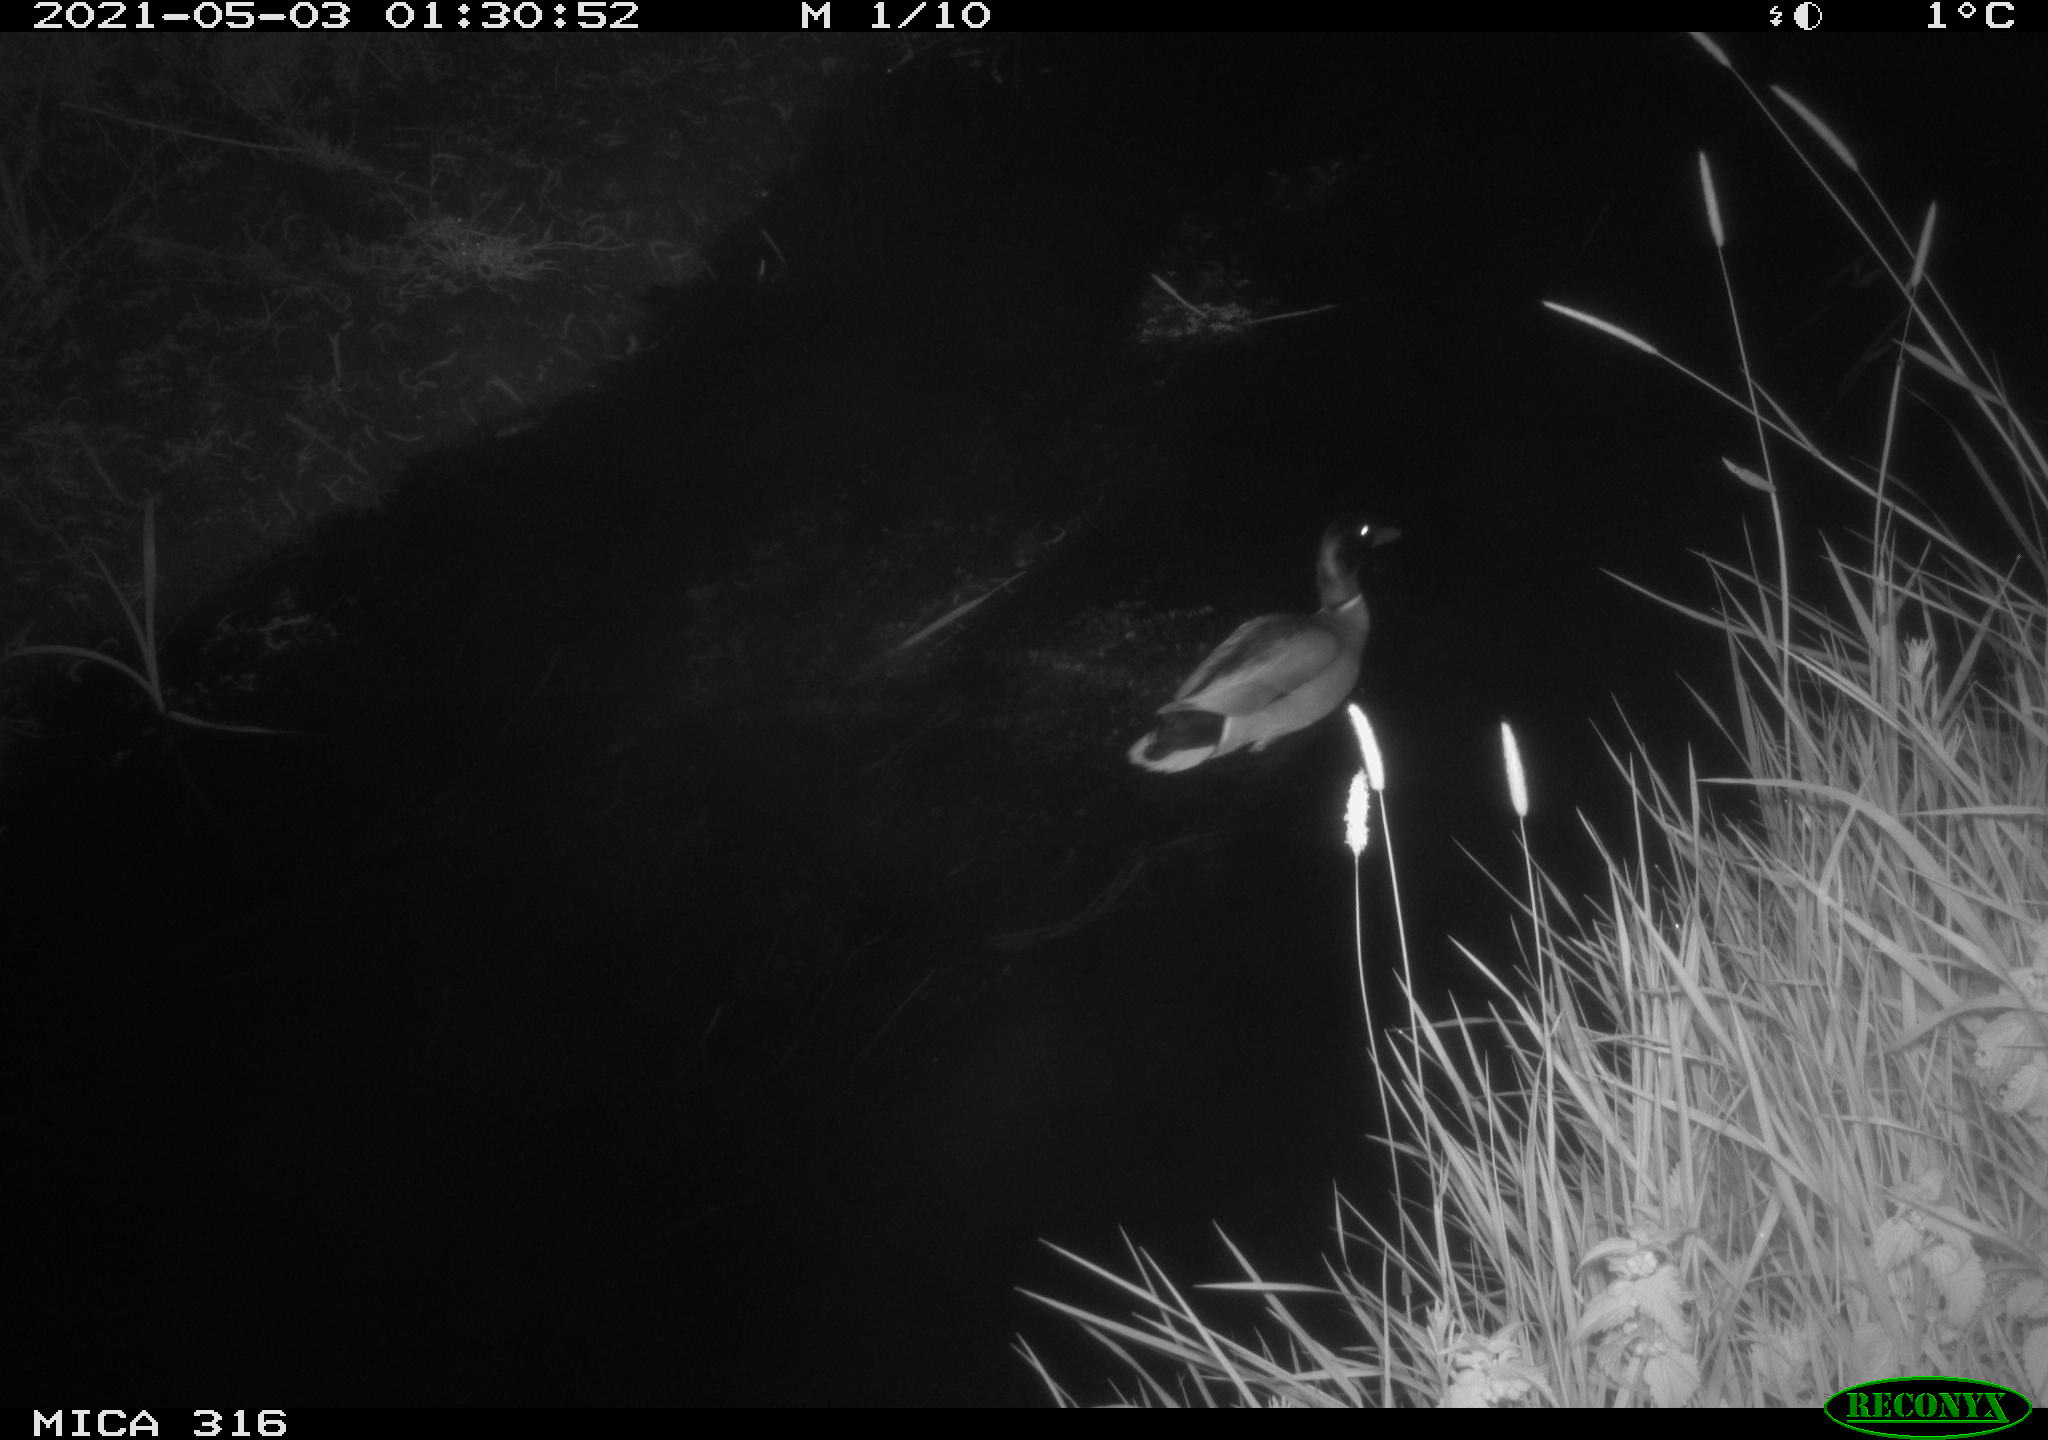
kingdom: Animalia
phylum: Chordata
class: Aves
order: Anseriformes
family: Anatidae
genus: Anas
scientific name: Anas platyrhynchos
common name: Mallard
